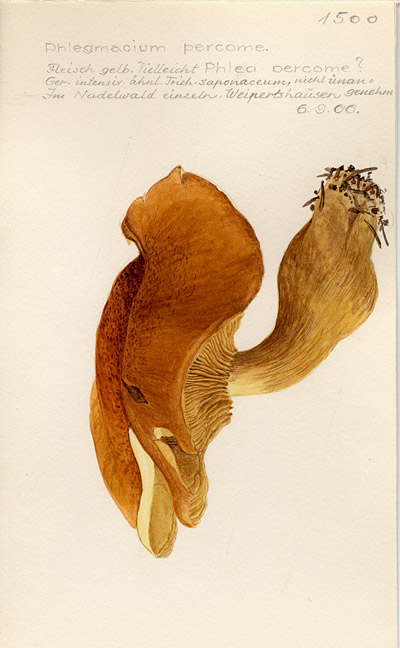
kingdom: Fungi
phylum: Basidiomycota
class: Agaricomycetes
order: Agaricales
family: Cortinariaceae
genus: Phlegmacium
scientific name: Phlegmacium percome
